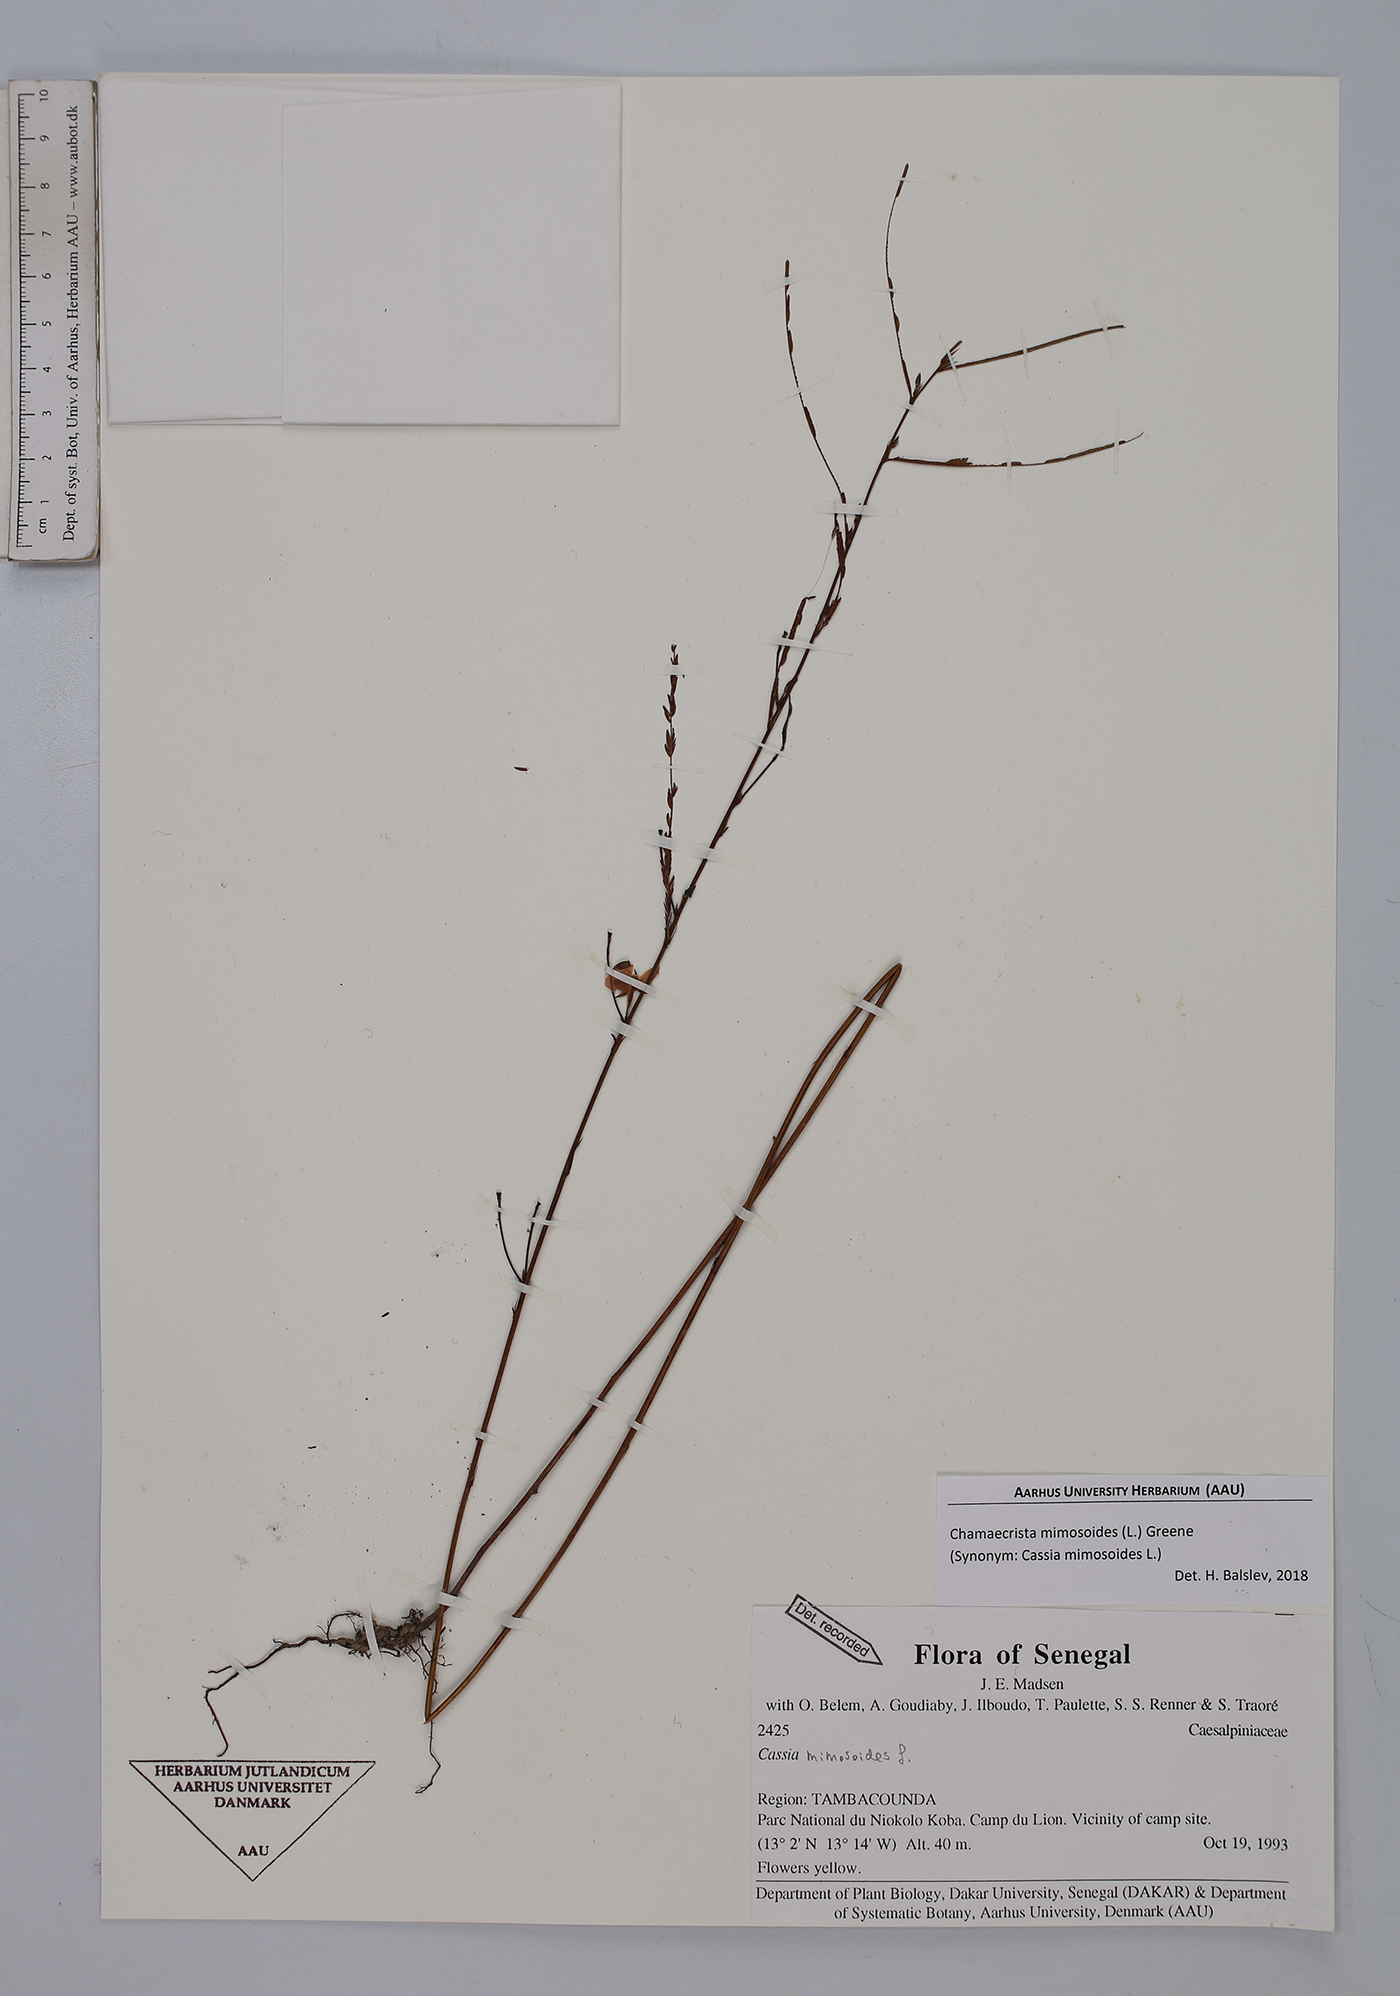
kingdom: Plantae
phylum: Tracheophyta
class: Magnoliopsida
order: Fabales
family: Fabaceae
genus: Chamaecrista
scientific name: Chamaecrista mimosoides
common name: Fish-bone cassia
